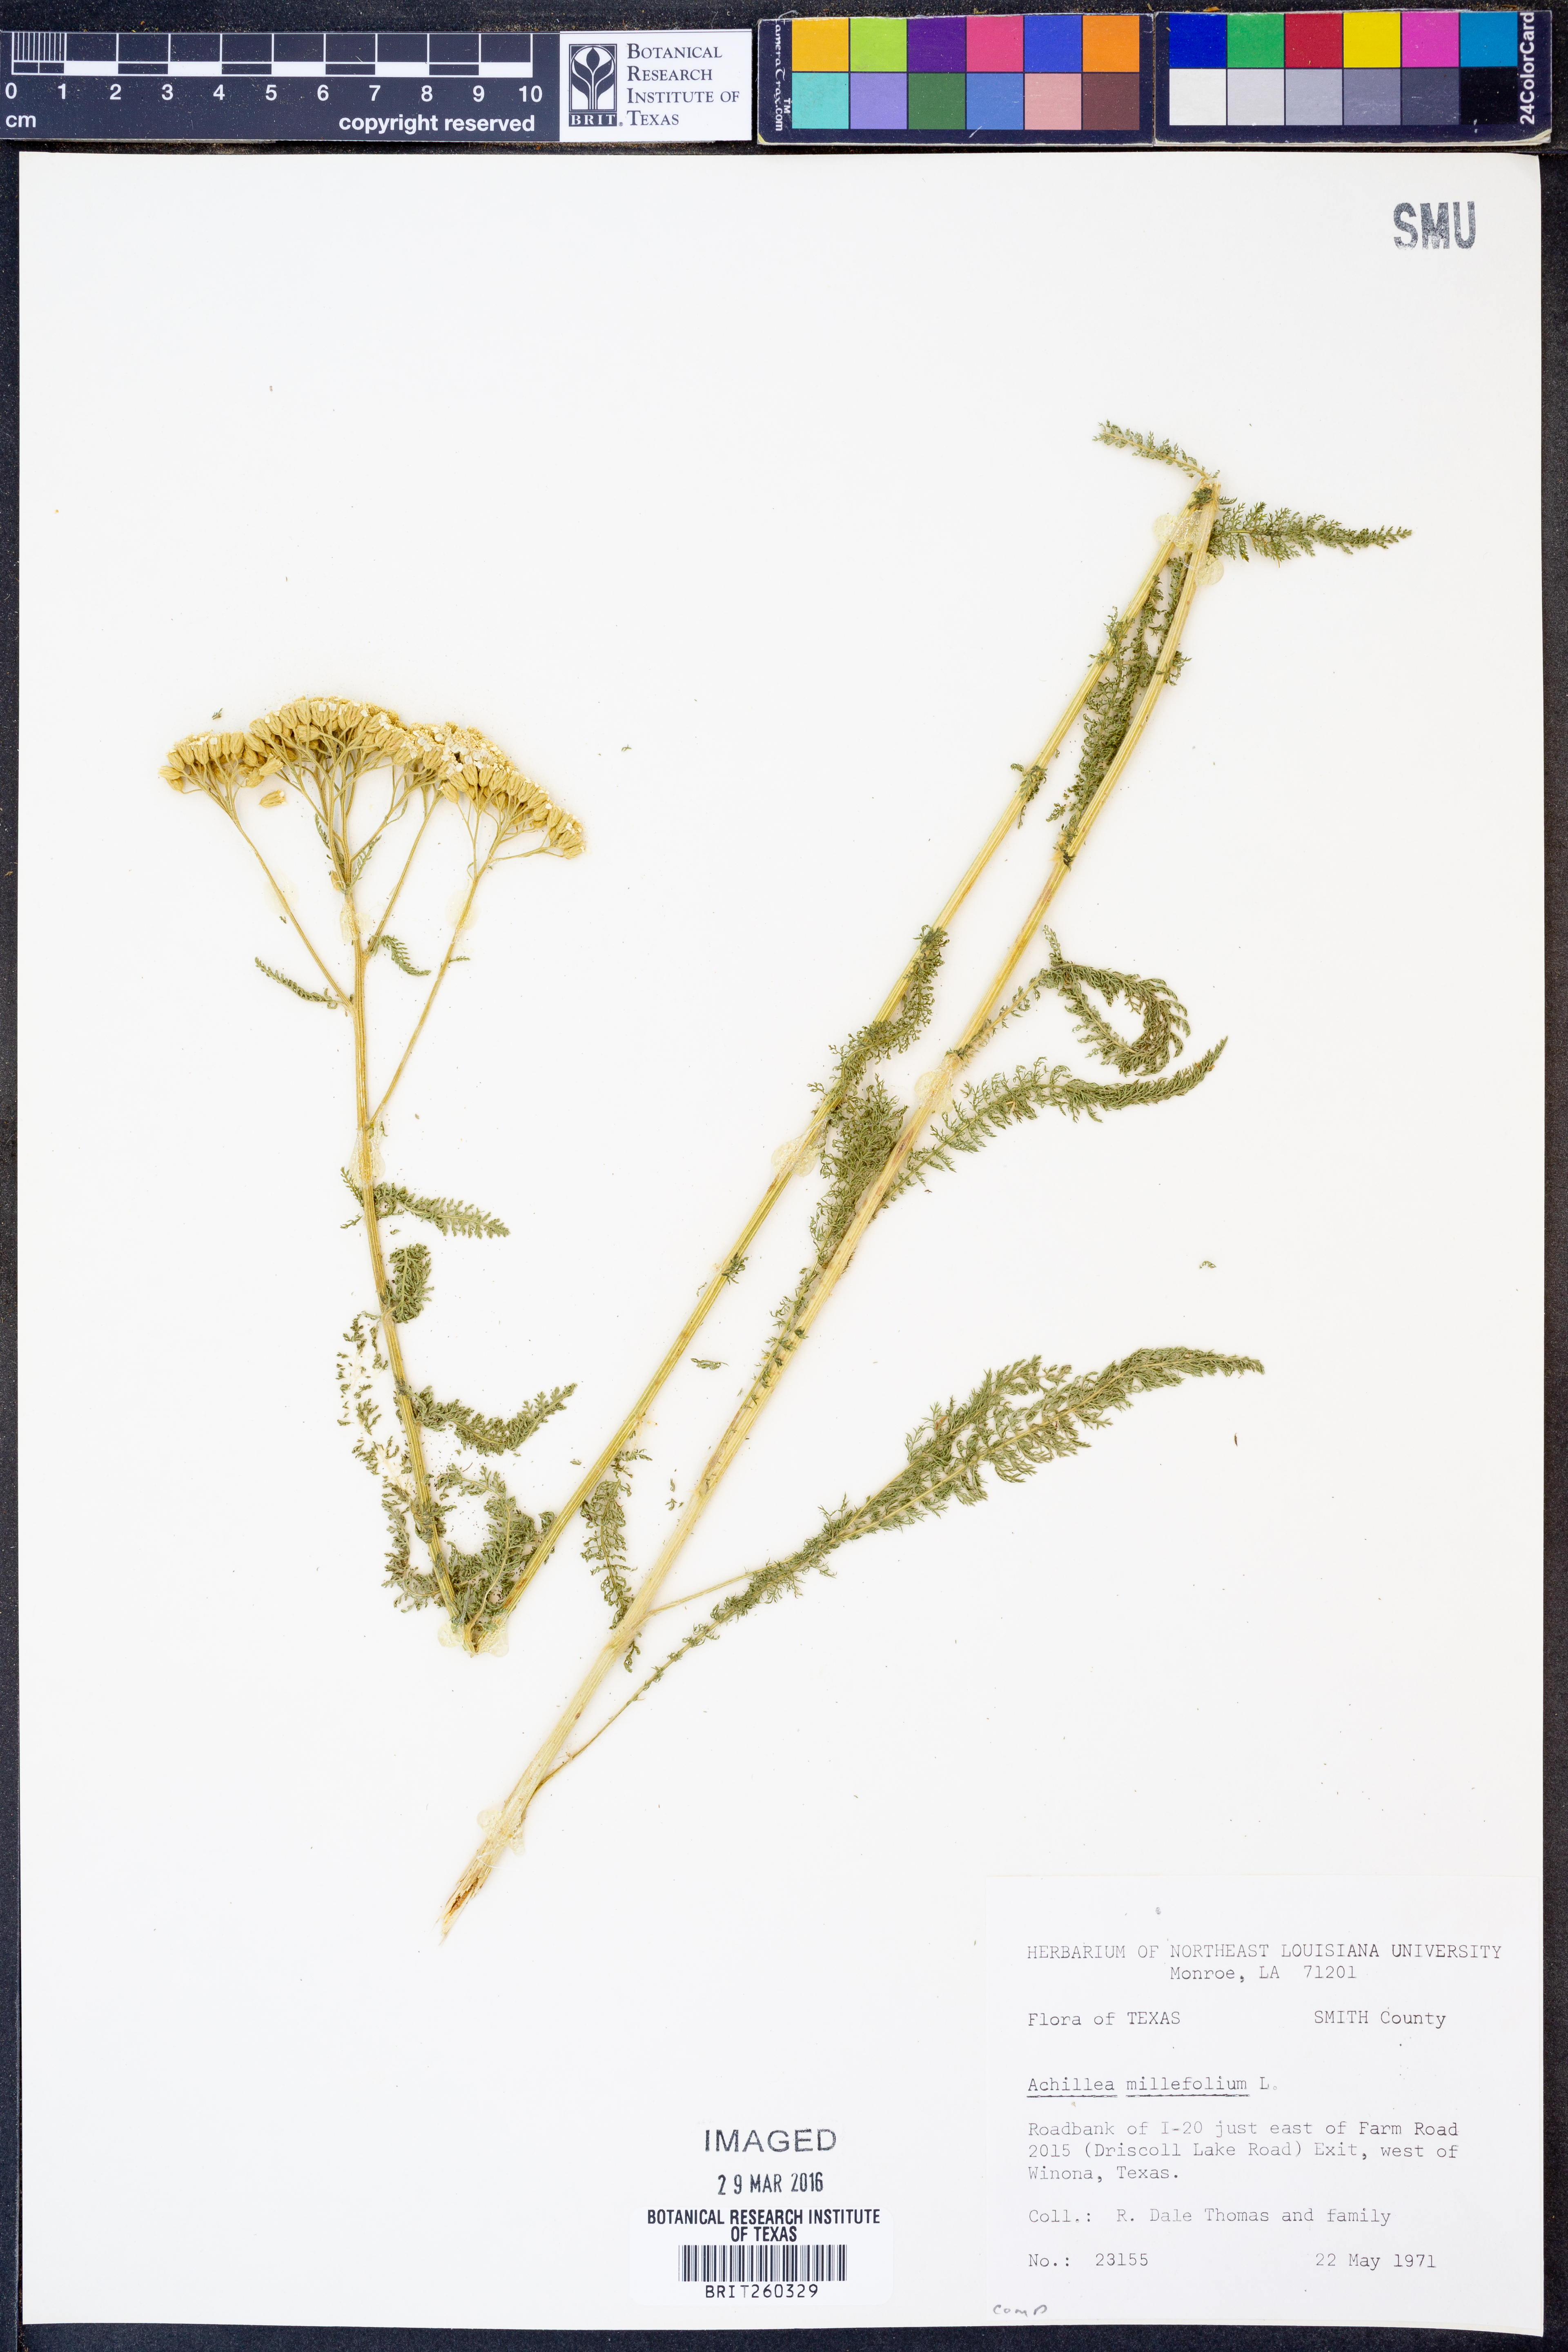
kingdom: Plantae
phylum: Tracheophyta
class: Magnoliopsida
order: Asterales
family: Asteraceae
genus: Achillea
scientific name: Achillea millefolium
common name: Yarrow
